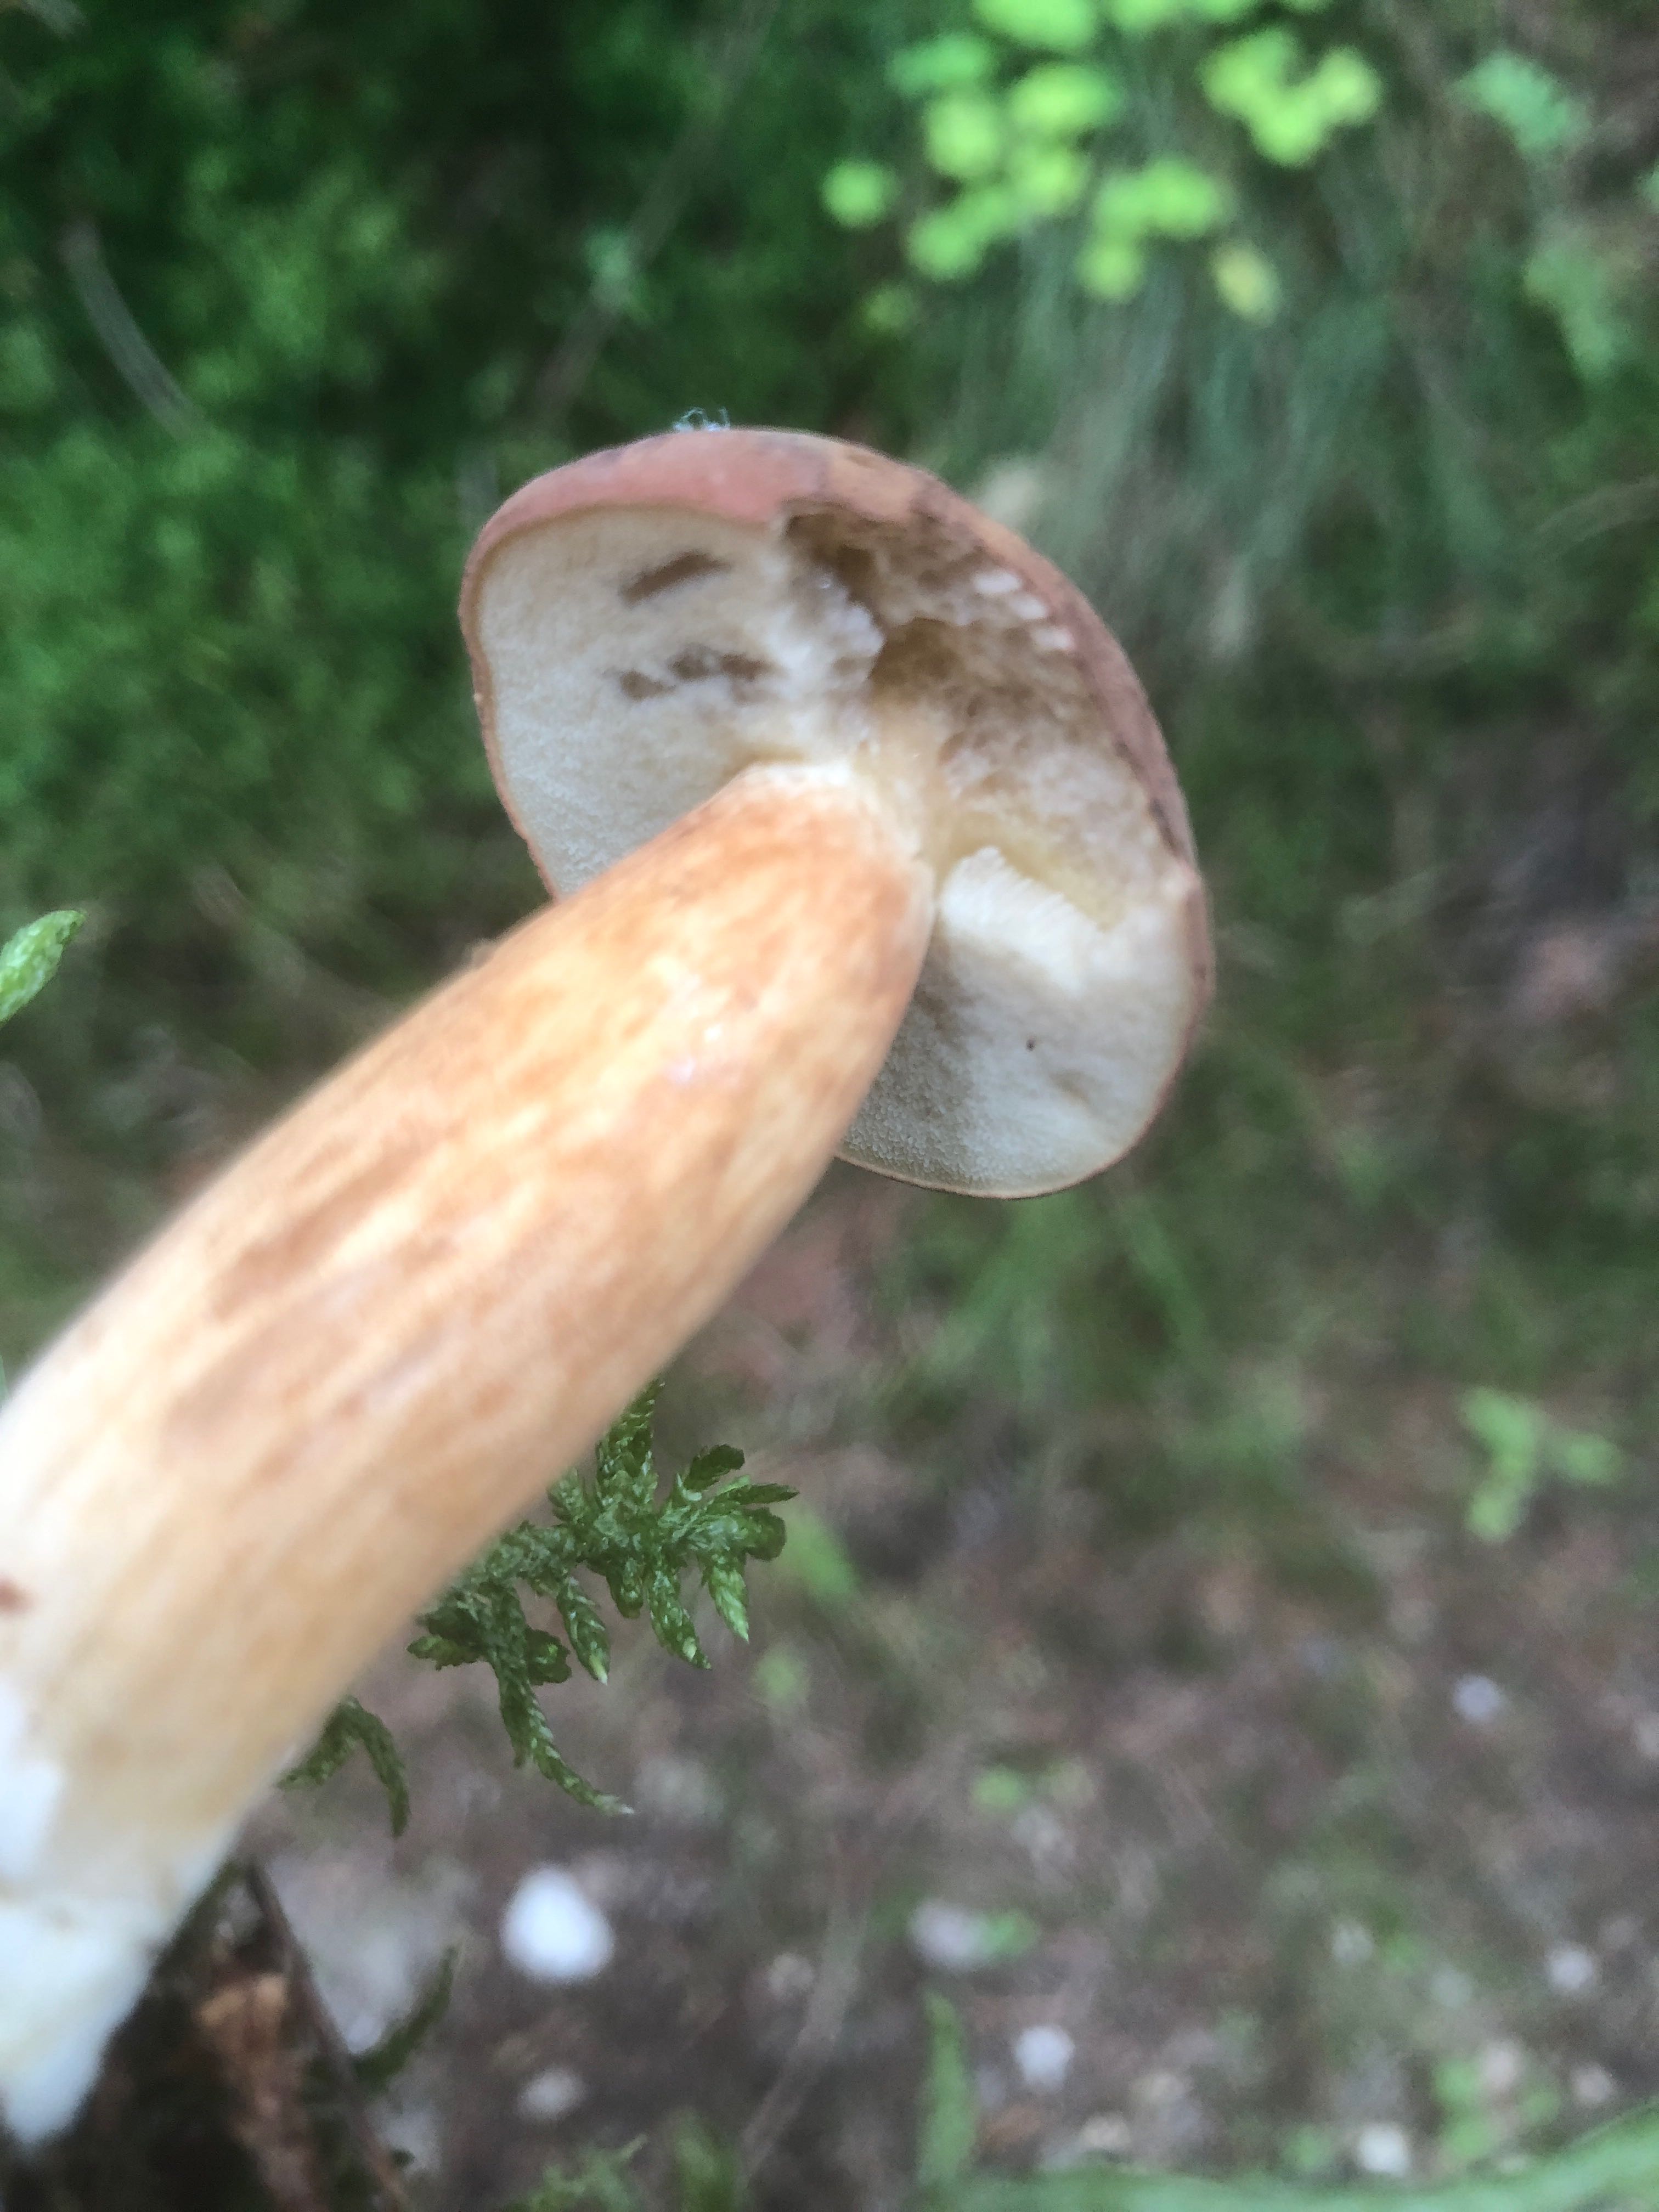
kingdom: Fungi
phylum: Basidiomycota
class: Agaricomycetes
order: Boletales
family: Boletaceae
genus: Imleria
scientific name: Imleria badia
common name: brunstokket rørhat
